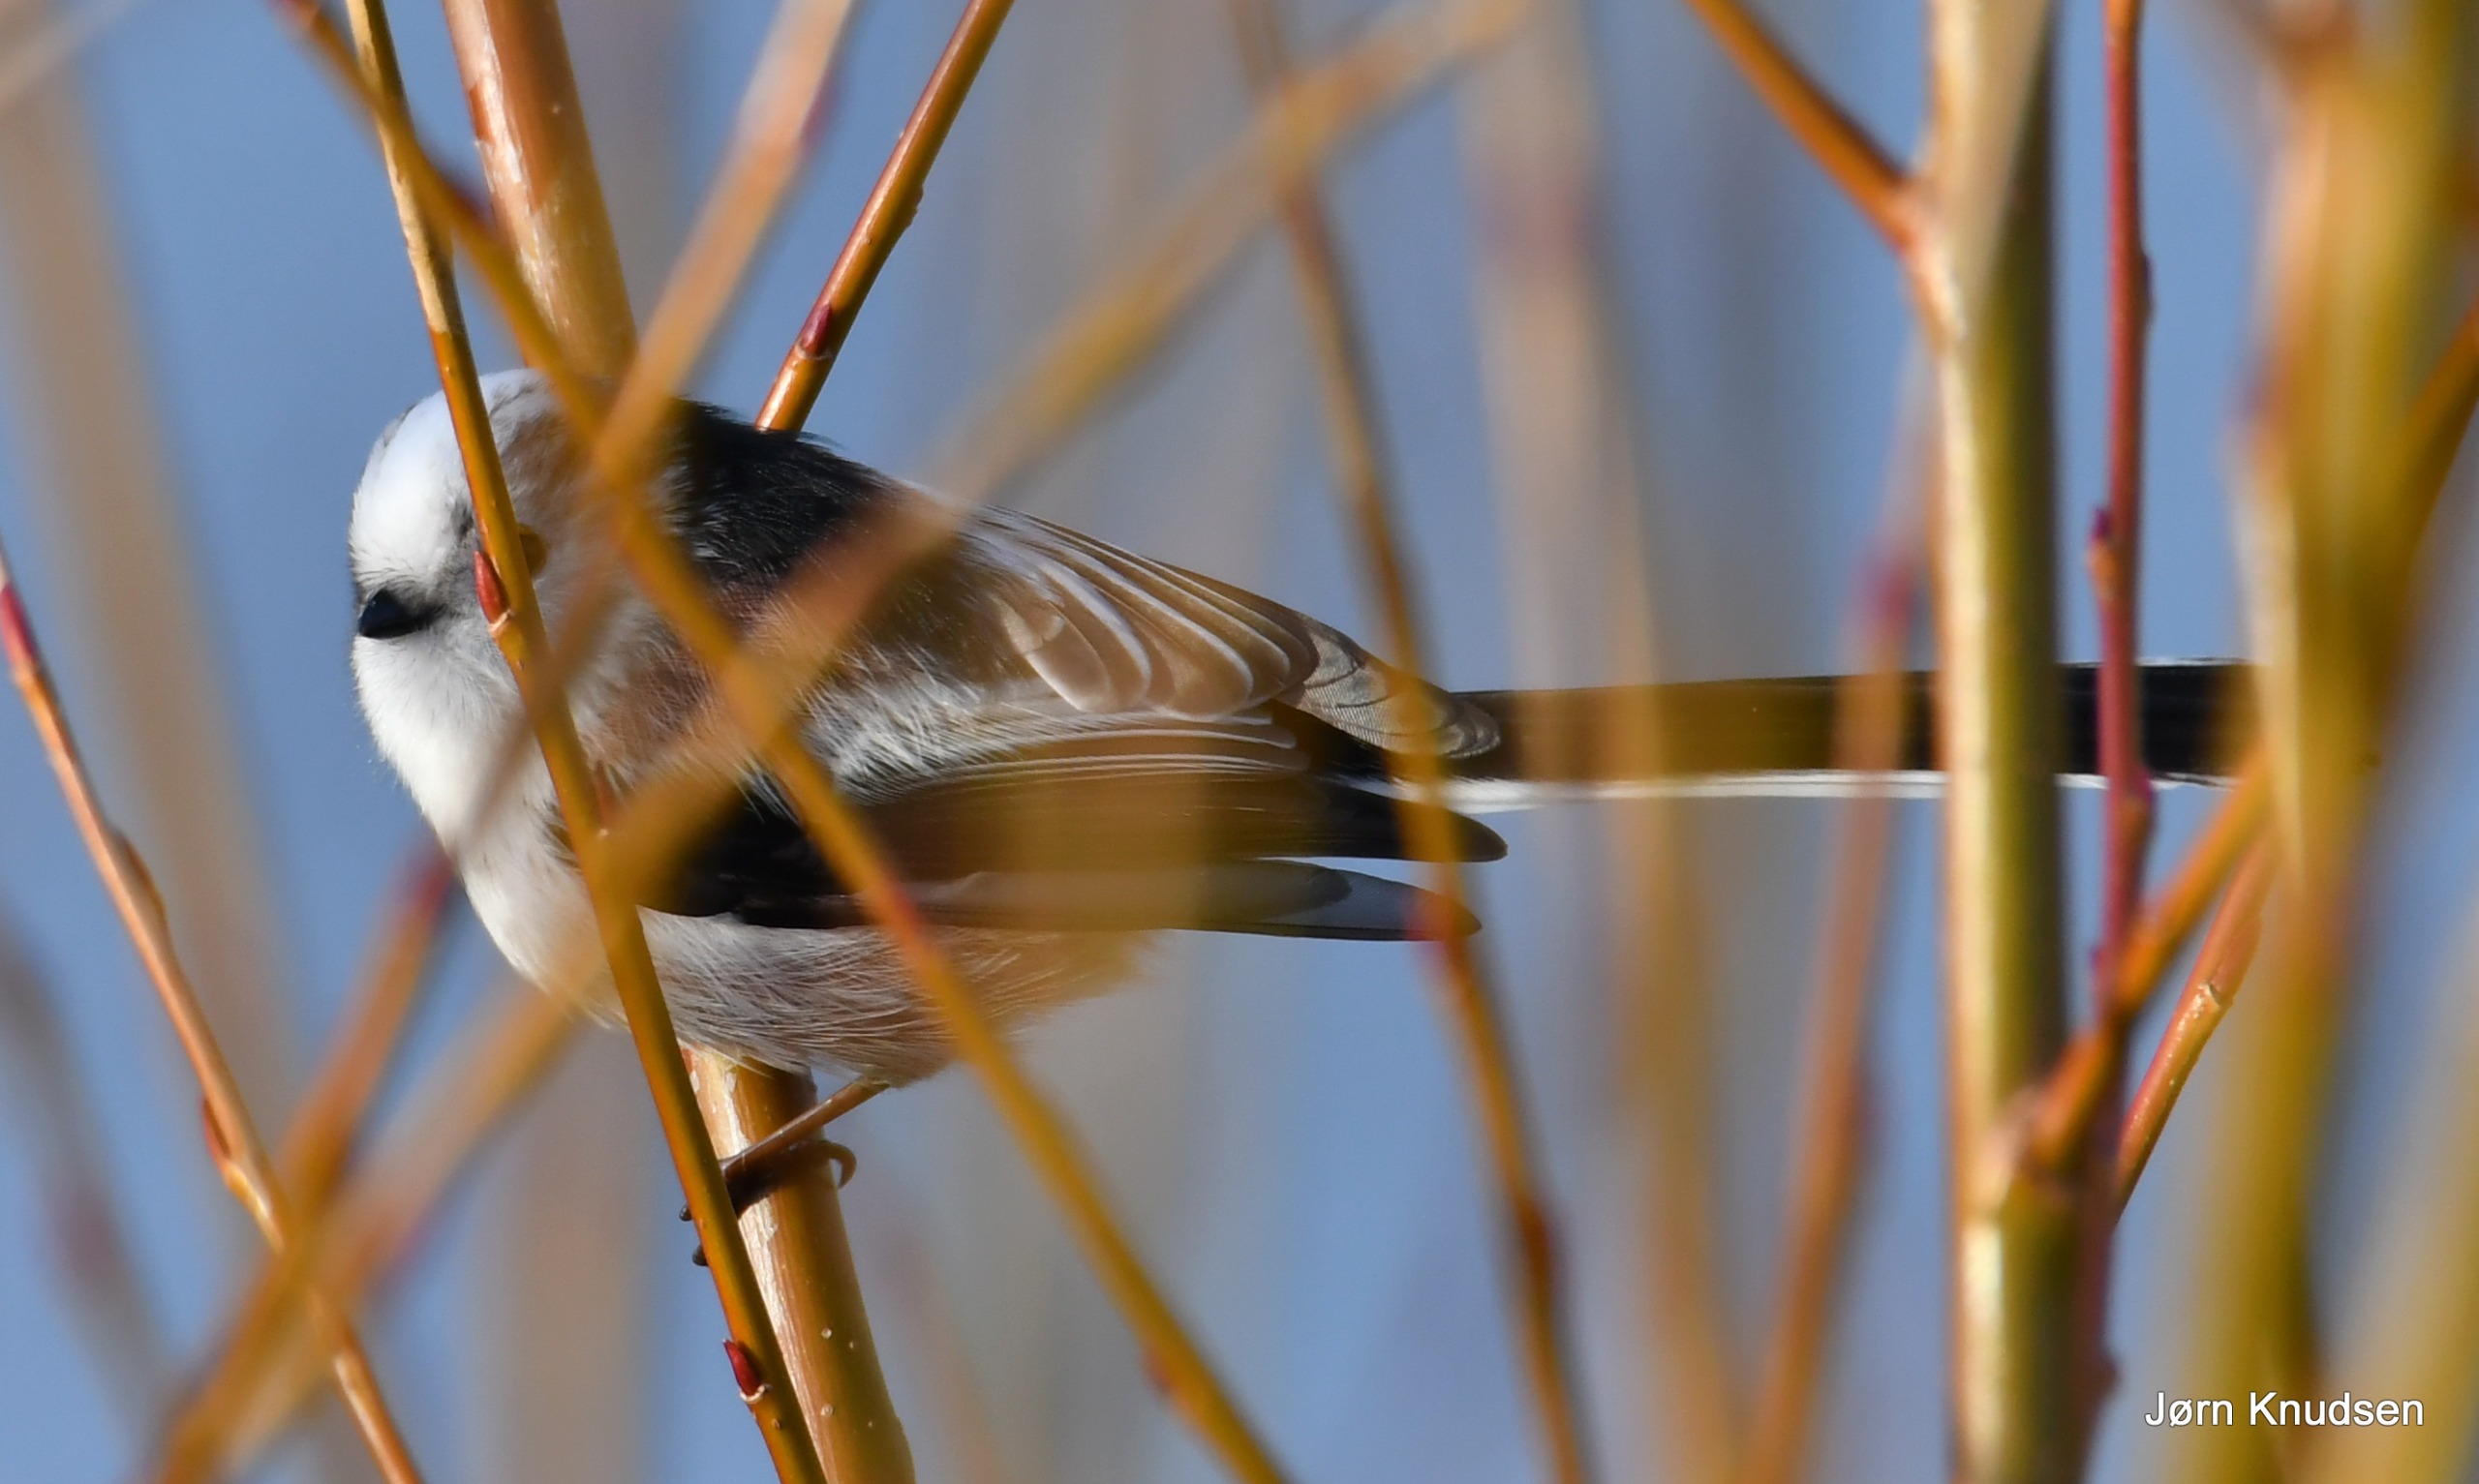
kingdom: Animalia
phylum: Chordata
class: Aves
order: Passeriformes
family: Aegithalidae
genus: Aegithalos
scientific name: Aegithalos caudatus
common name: Halemejse
